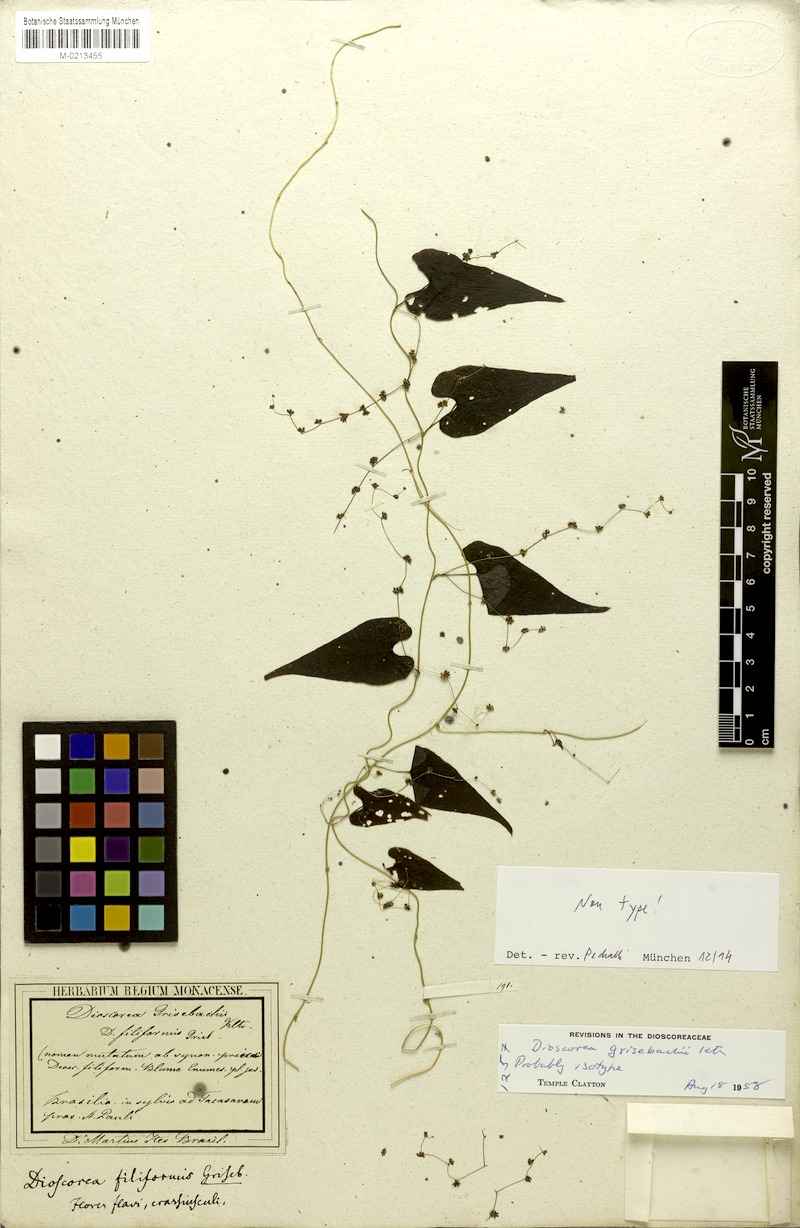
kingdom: Plantae
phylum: Tracheophyta
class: Liliopsida
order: Dioscoreales
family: Dioscoreaceae
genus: Dioscorea
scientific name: Dioscorea grisebachii
